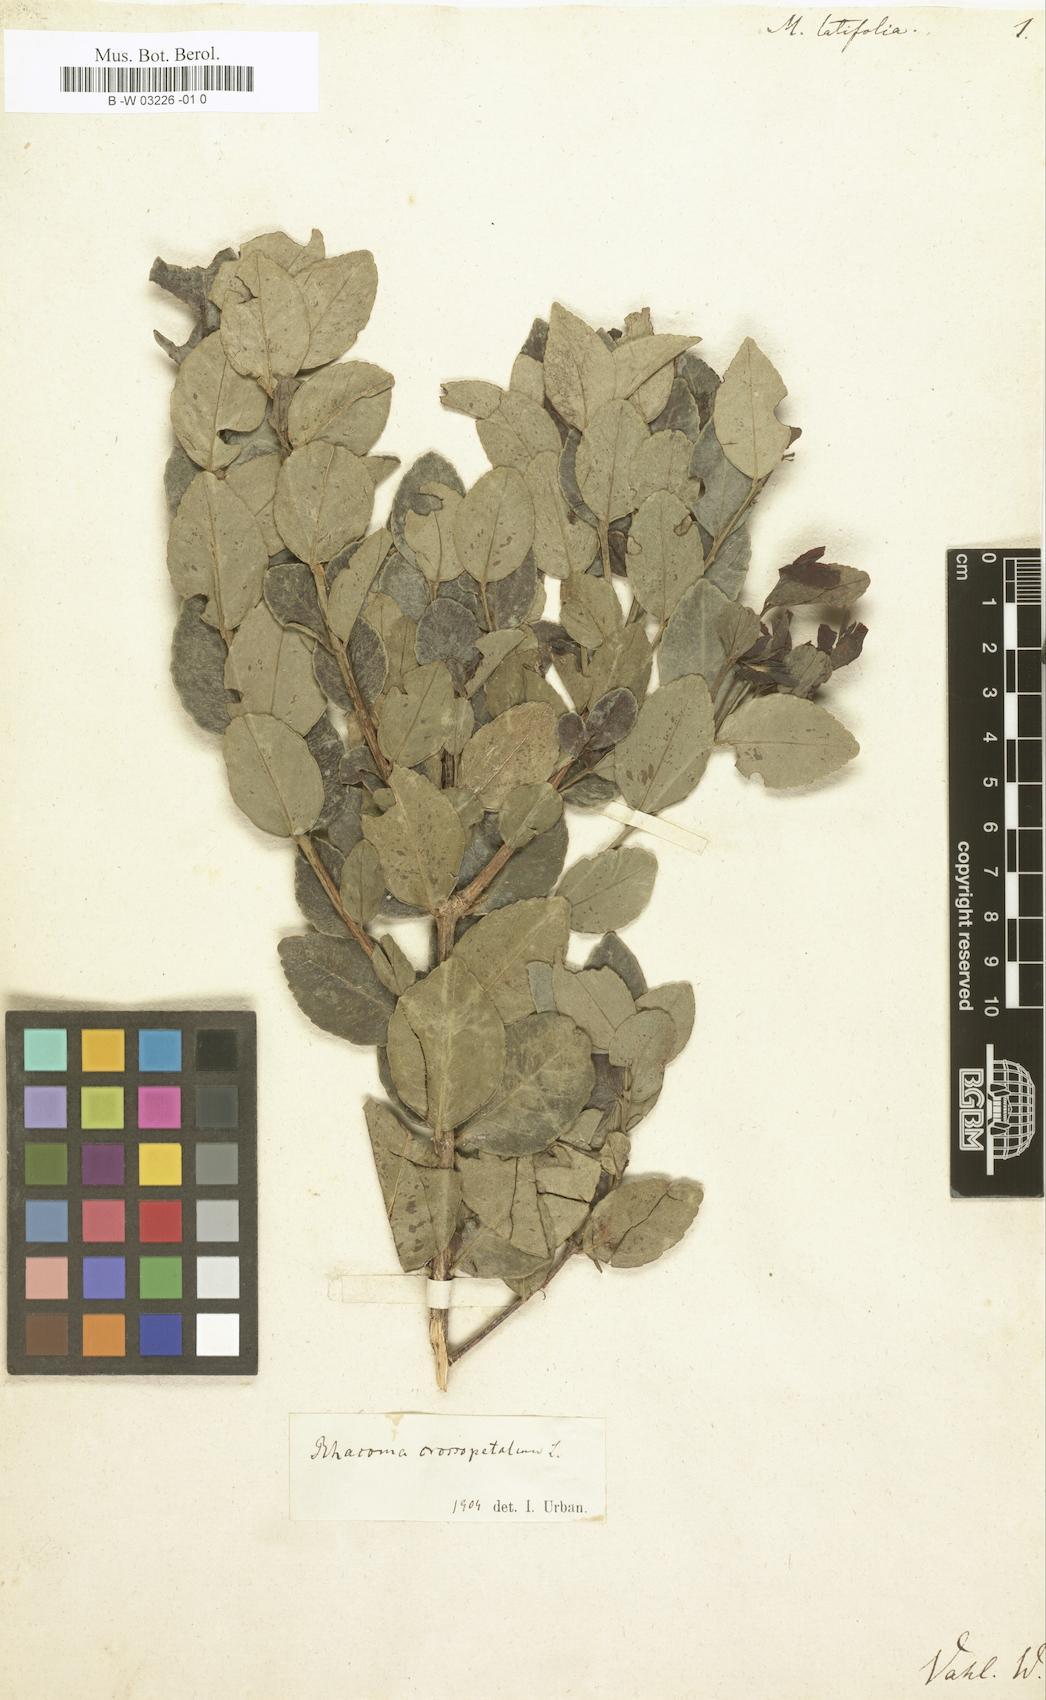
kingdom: Plantae
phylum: Tracheophyta
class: Magnoliopsida
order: Celastrales
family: Celastraceae
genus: Gyminda
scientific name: Gyminda latifolia
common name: False boxwood
